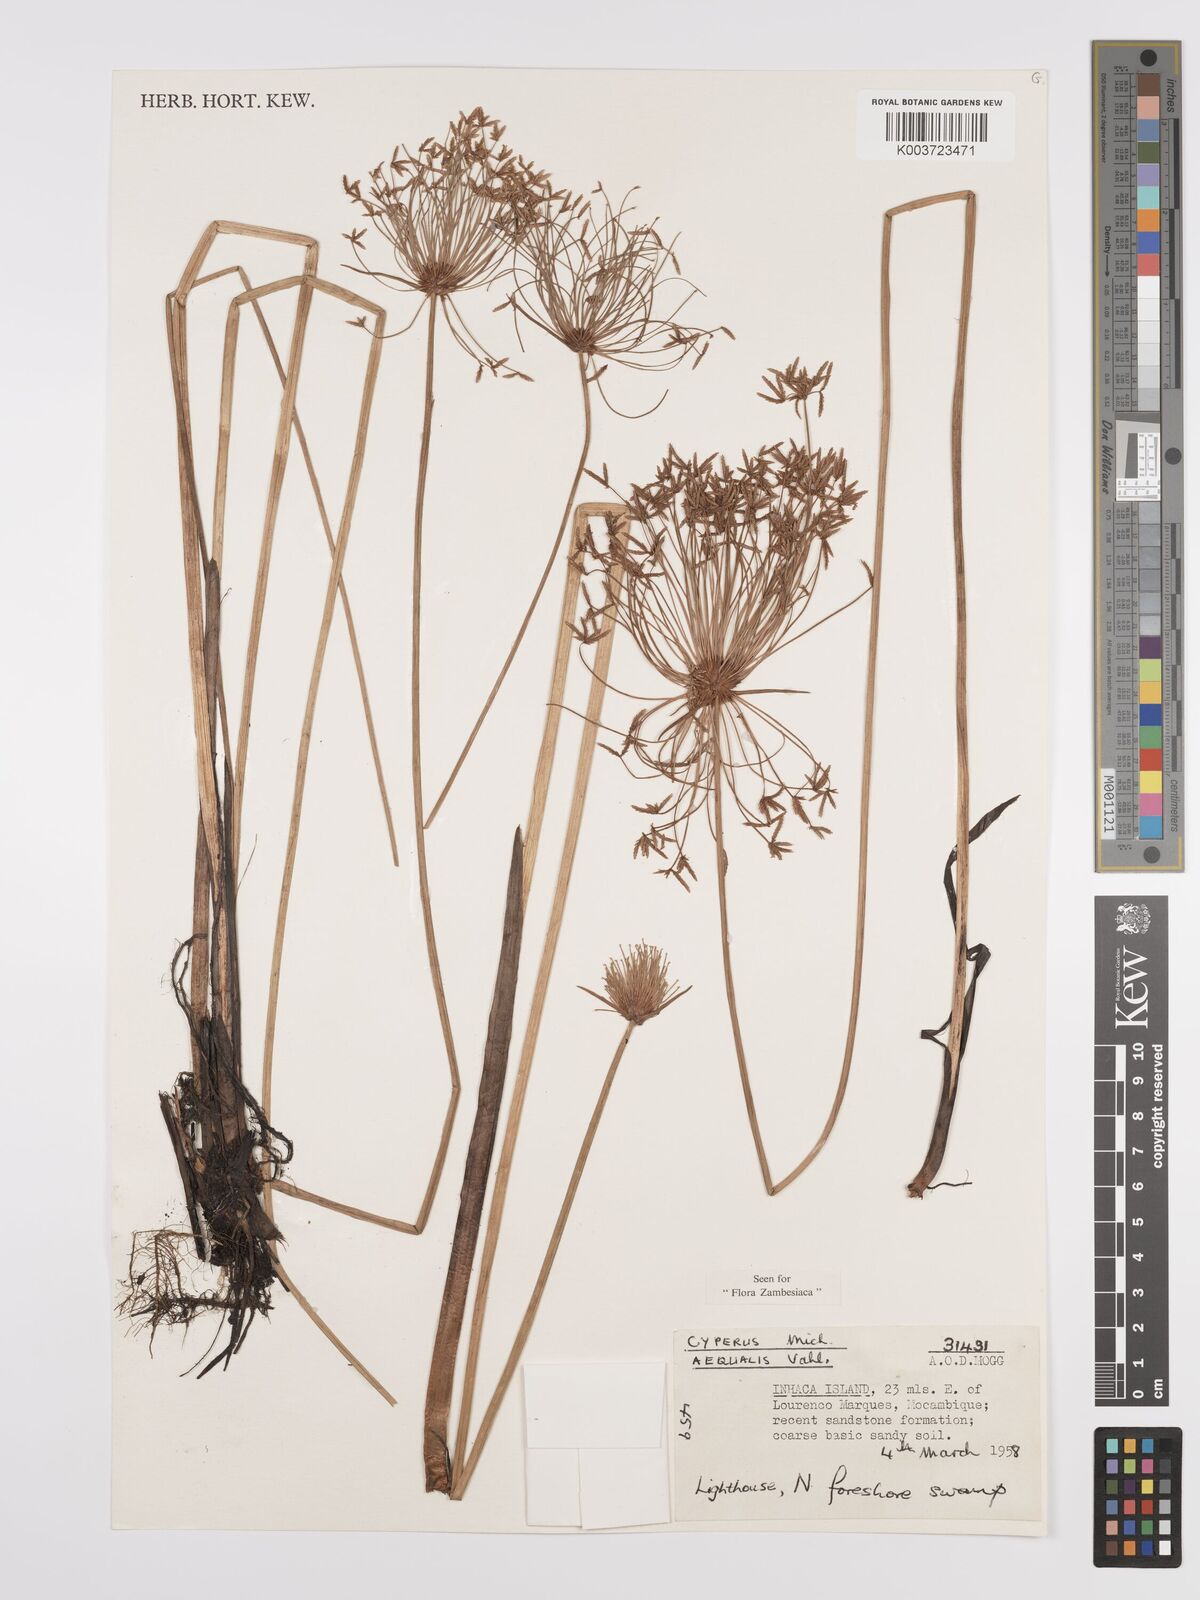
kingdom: Plantae
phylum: Tracheophyta
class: Liliopsida
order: Poales
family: Cyperaceae
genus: Cyperus
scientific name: Cyperus prolifer
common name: Miniature flatsedge
